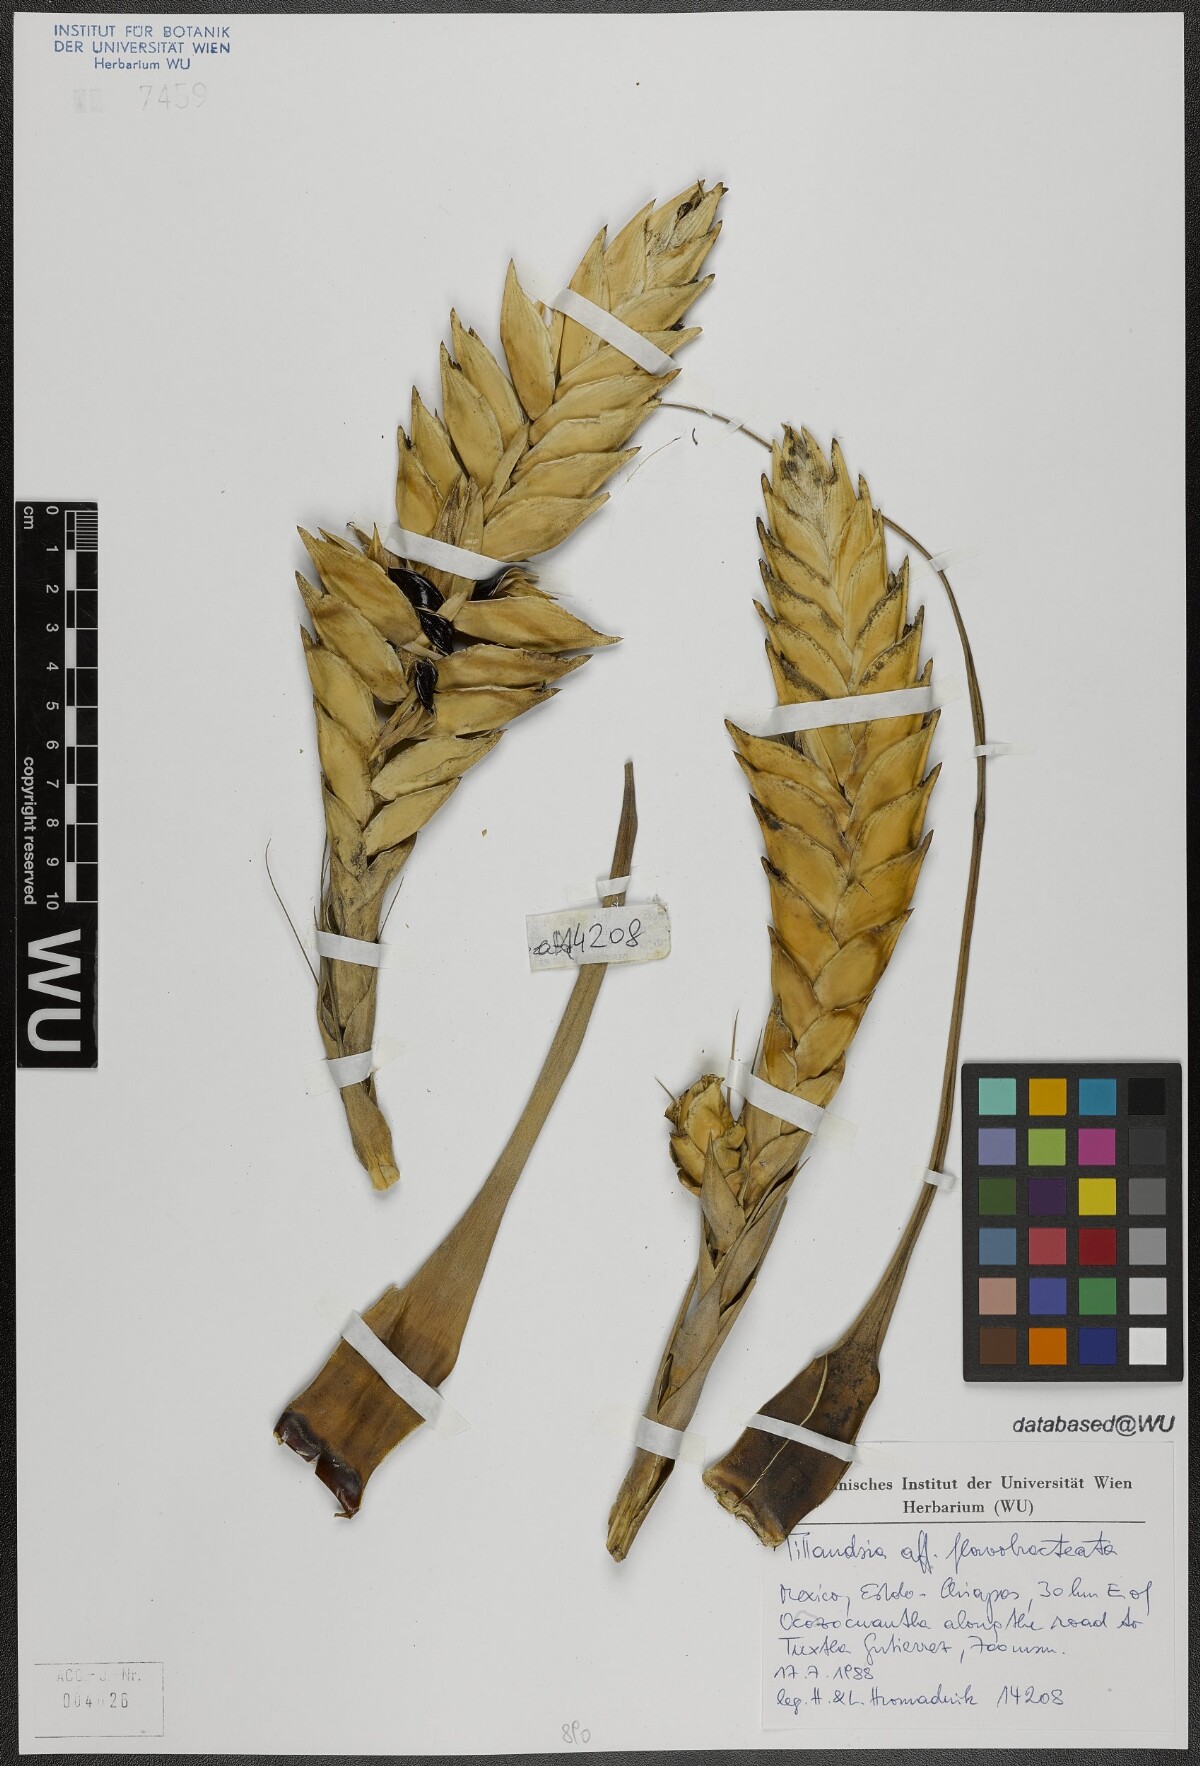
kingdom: Plantae
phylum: Tracheophyta
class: Liliopsida
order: Poales
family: Bromeliaceae
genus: Tillandsia
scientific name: Tillandsia flavobracteata
